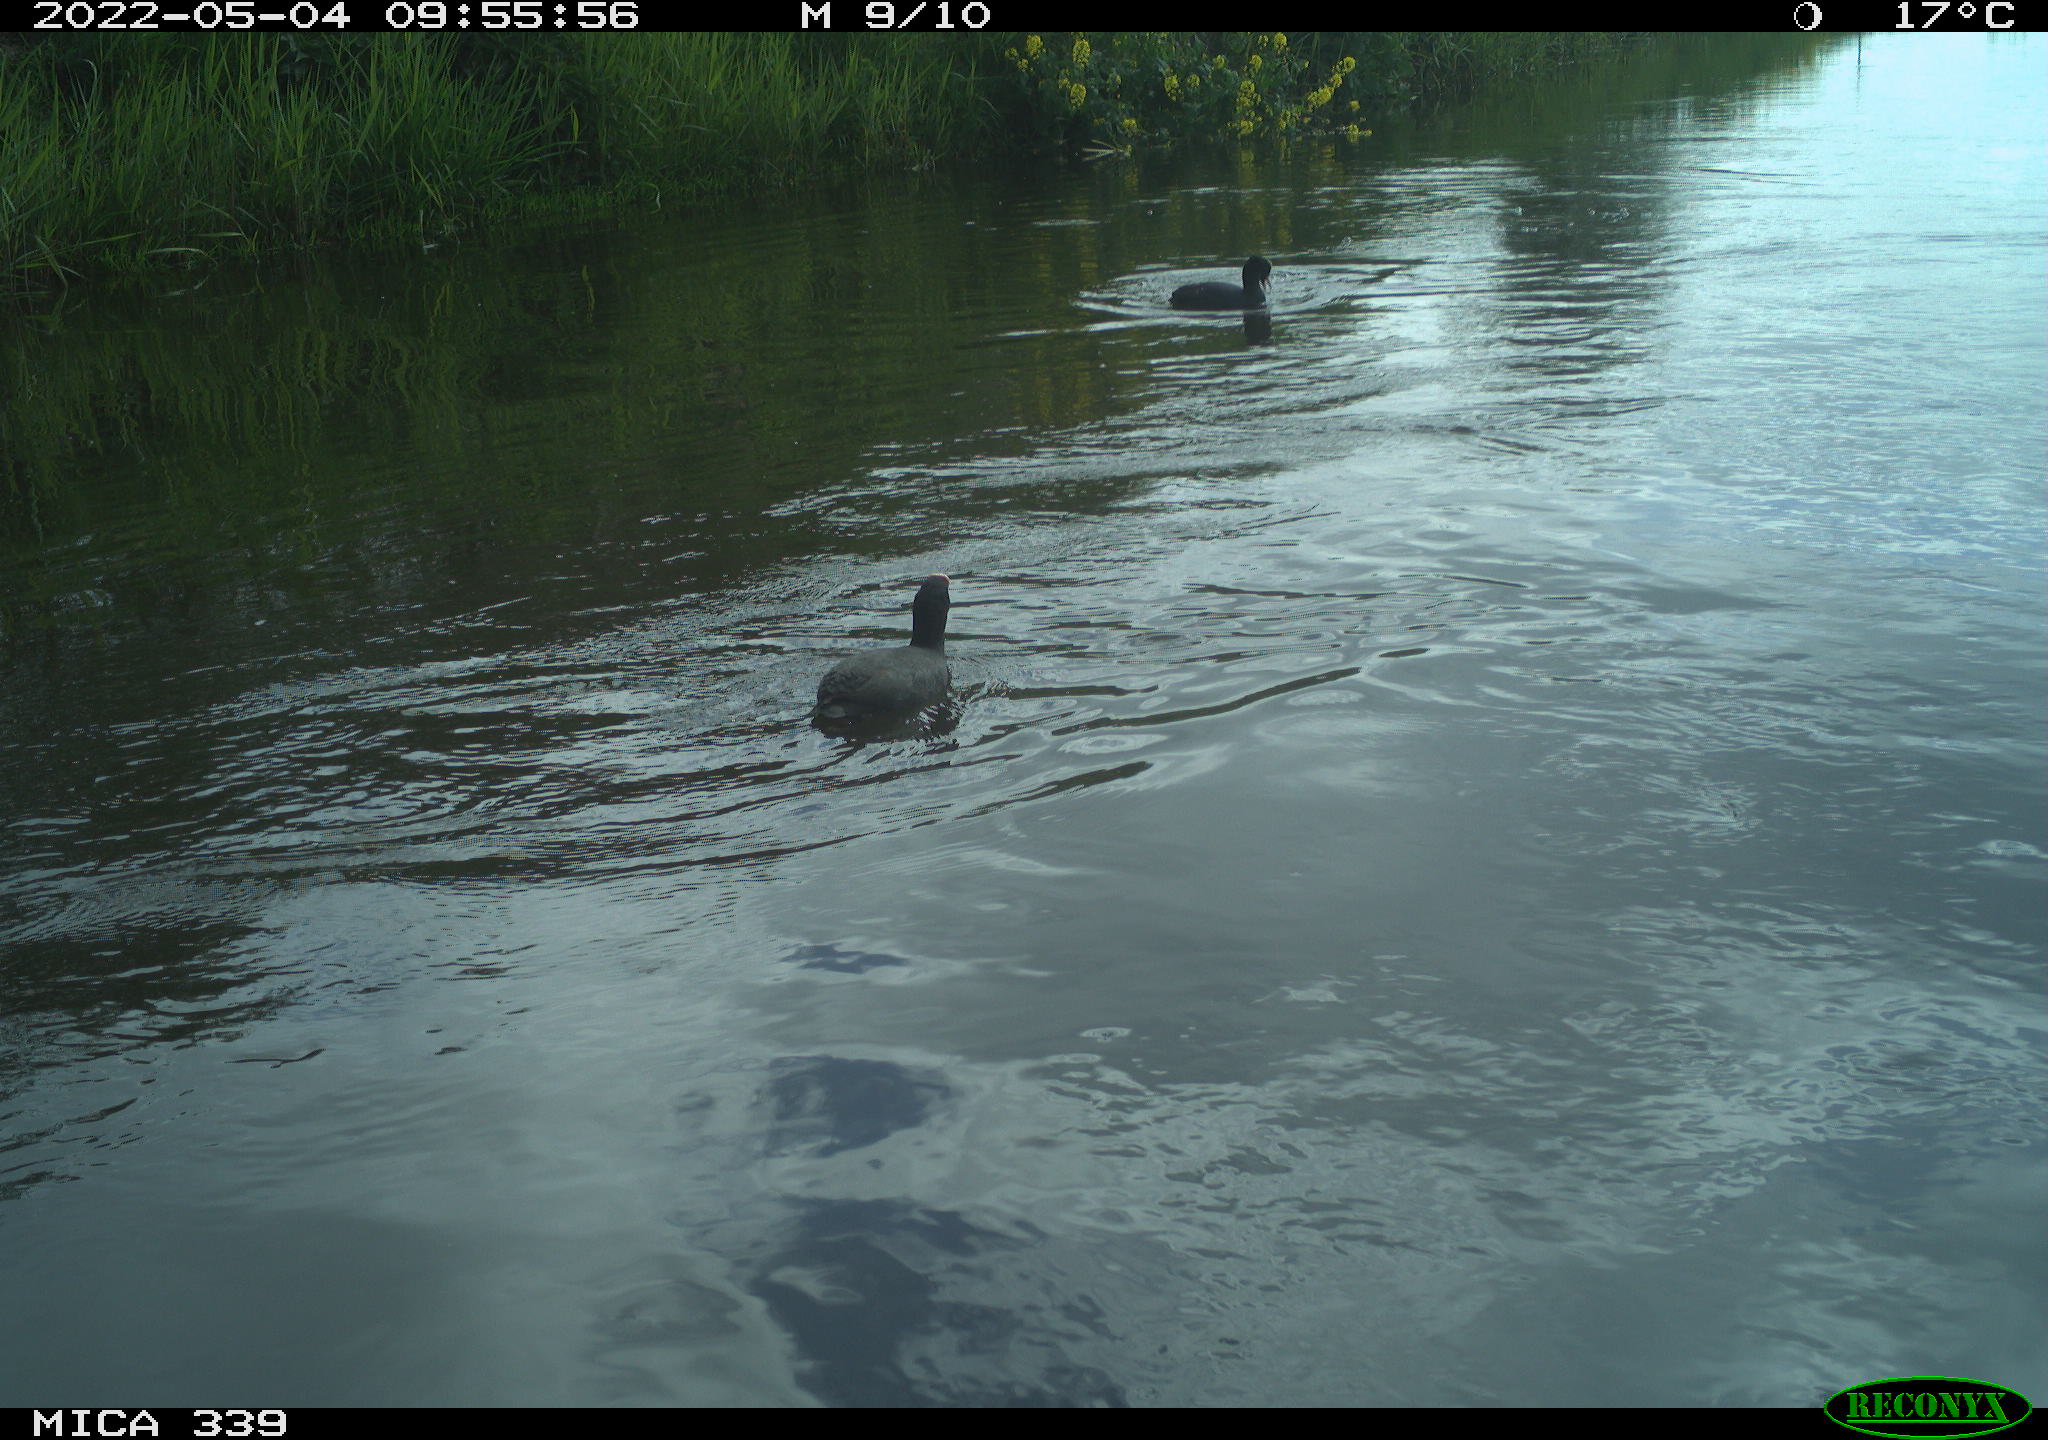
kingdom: Animalia
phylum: Chordata
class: Aves
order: Gruiformes
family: Rallidae
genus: Gallinula
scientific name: Gallinula chloropus
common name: Common moorhen
